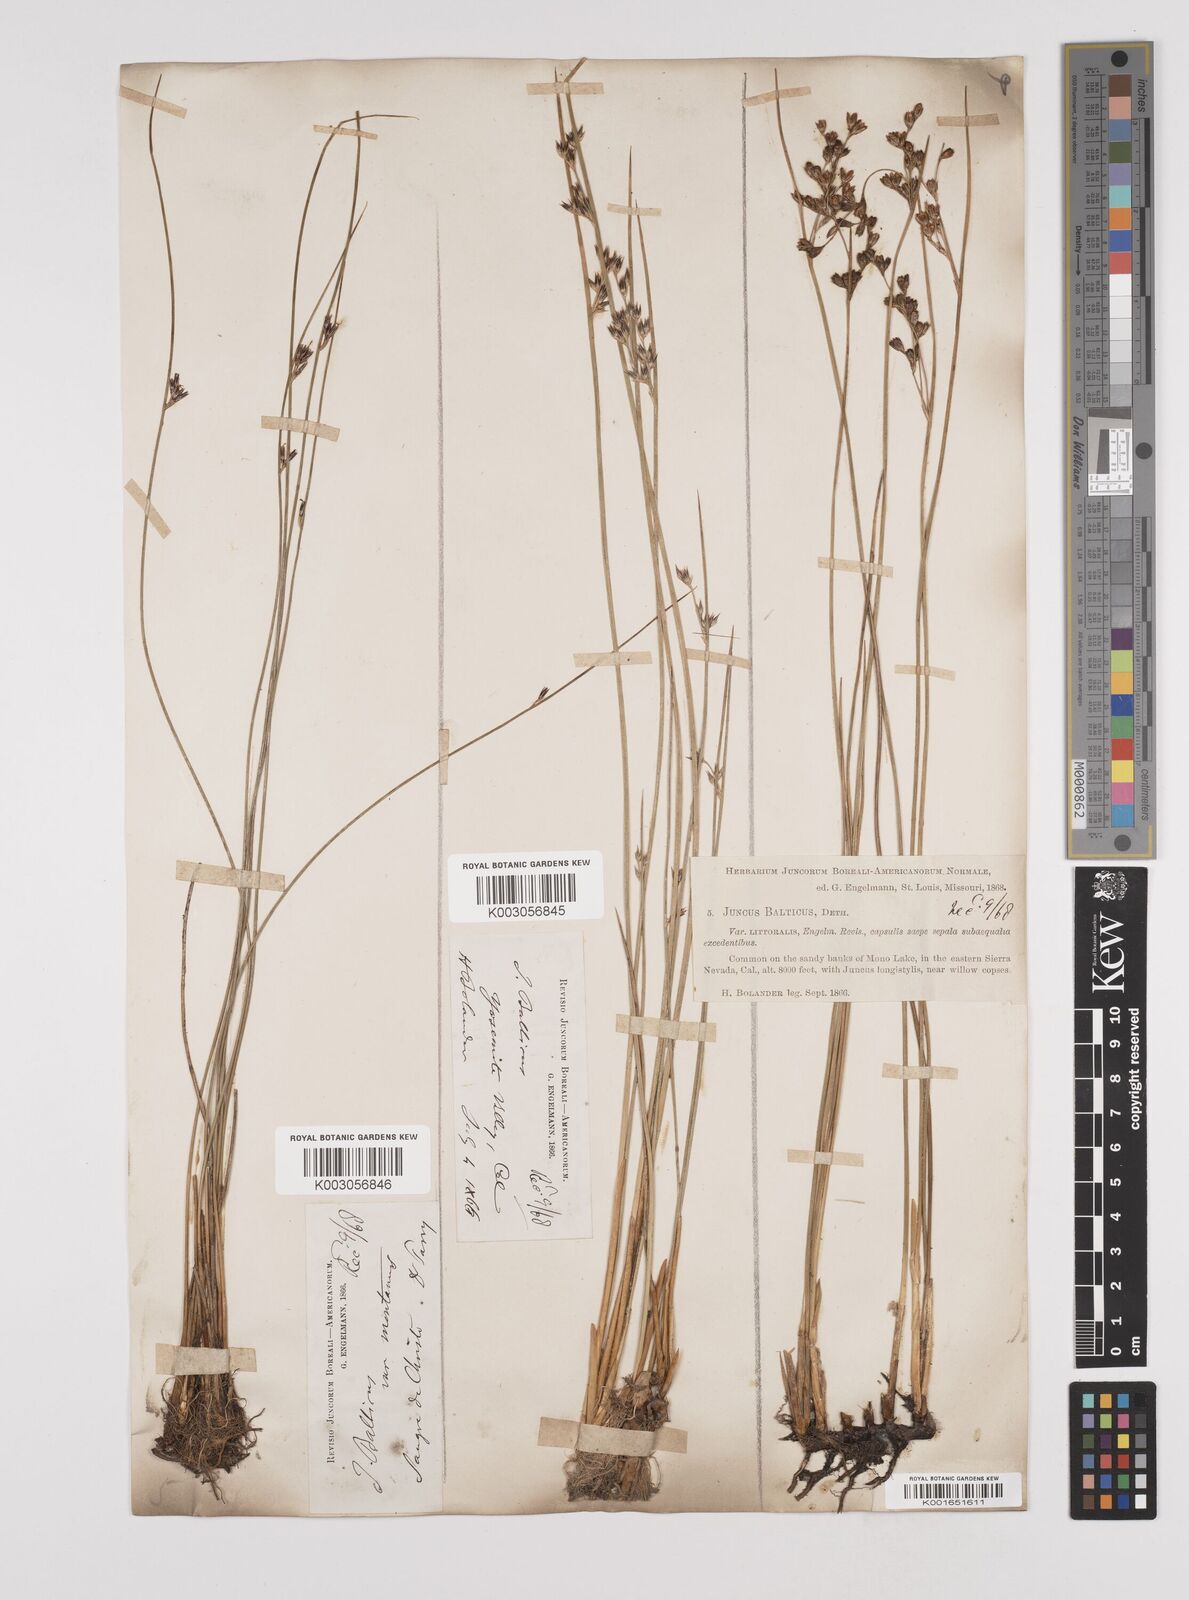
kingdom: Plantae
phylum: Tracheophyta
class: Liliopsida
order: Poales
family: Juncaceae
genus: Juncus
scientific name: Juncus balticus
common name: Baltic rush
